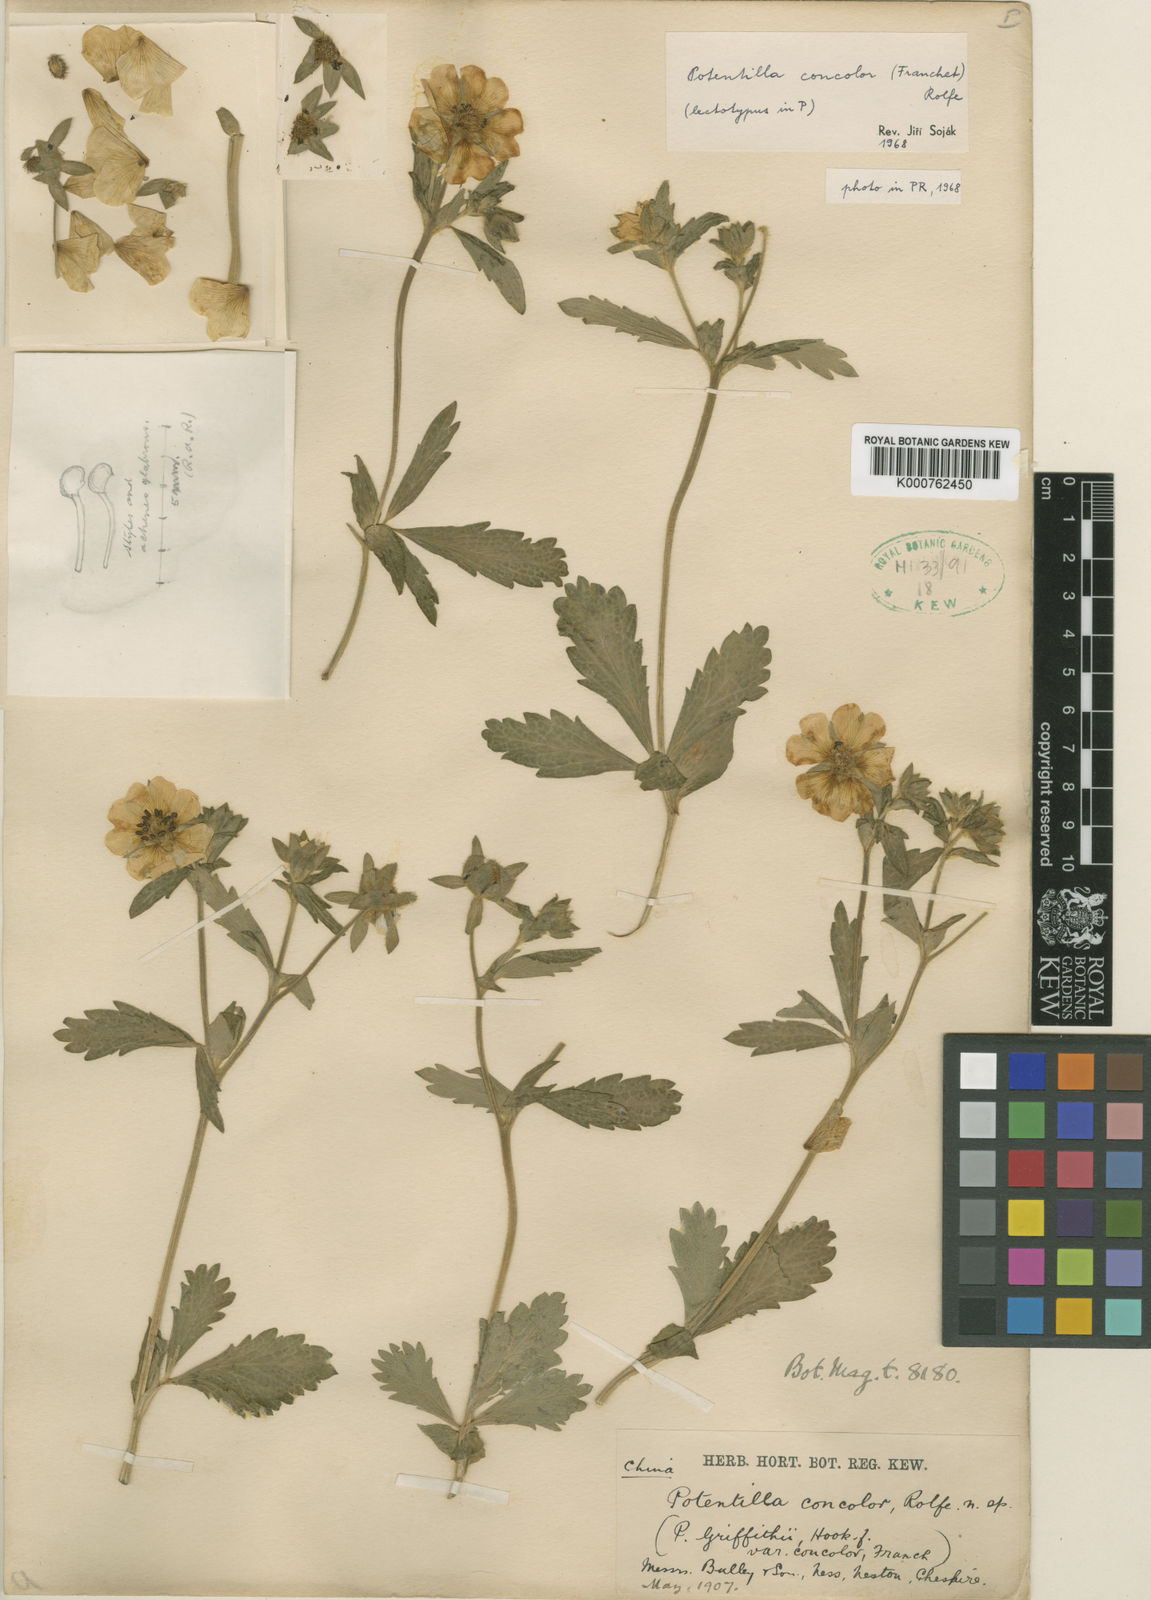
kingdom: Plantae
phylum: Tracheophyta
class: Magnoliopsida
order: Rosales
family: Rosaceae
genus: Potentilla
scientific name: Potentilla lancinata
